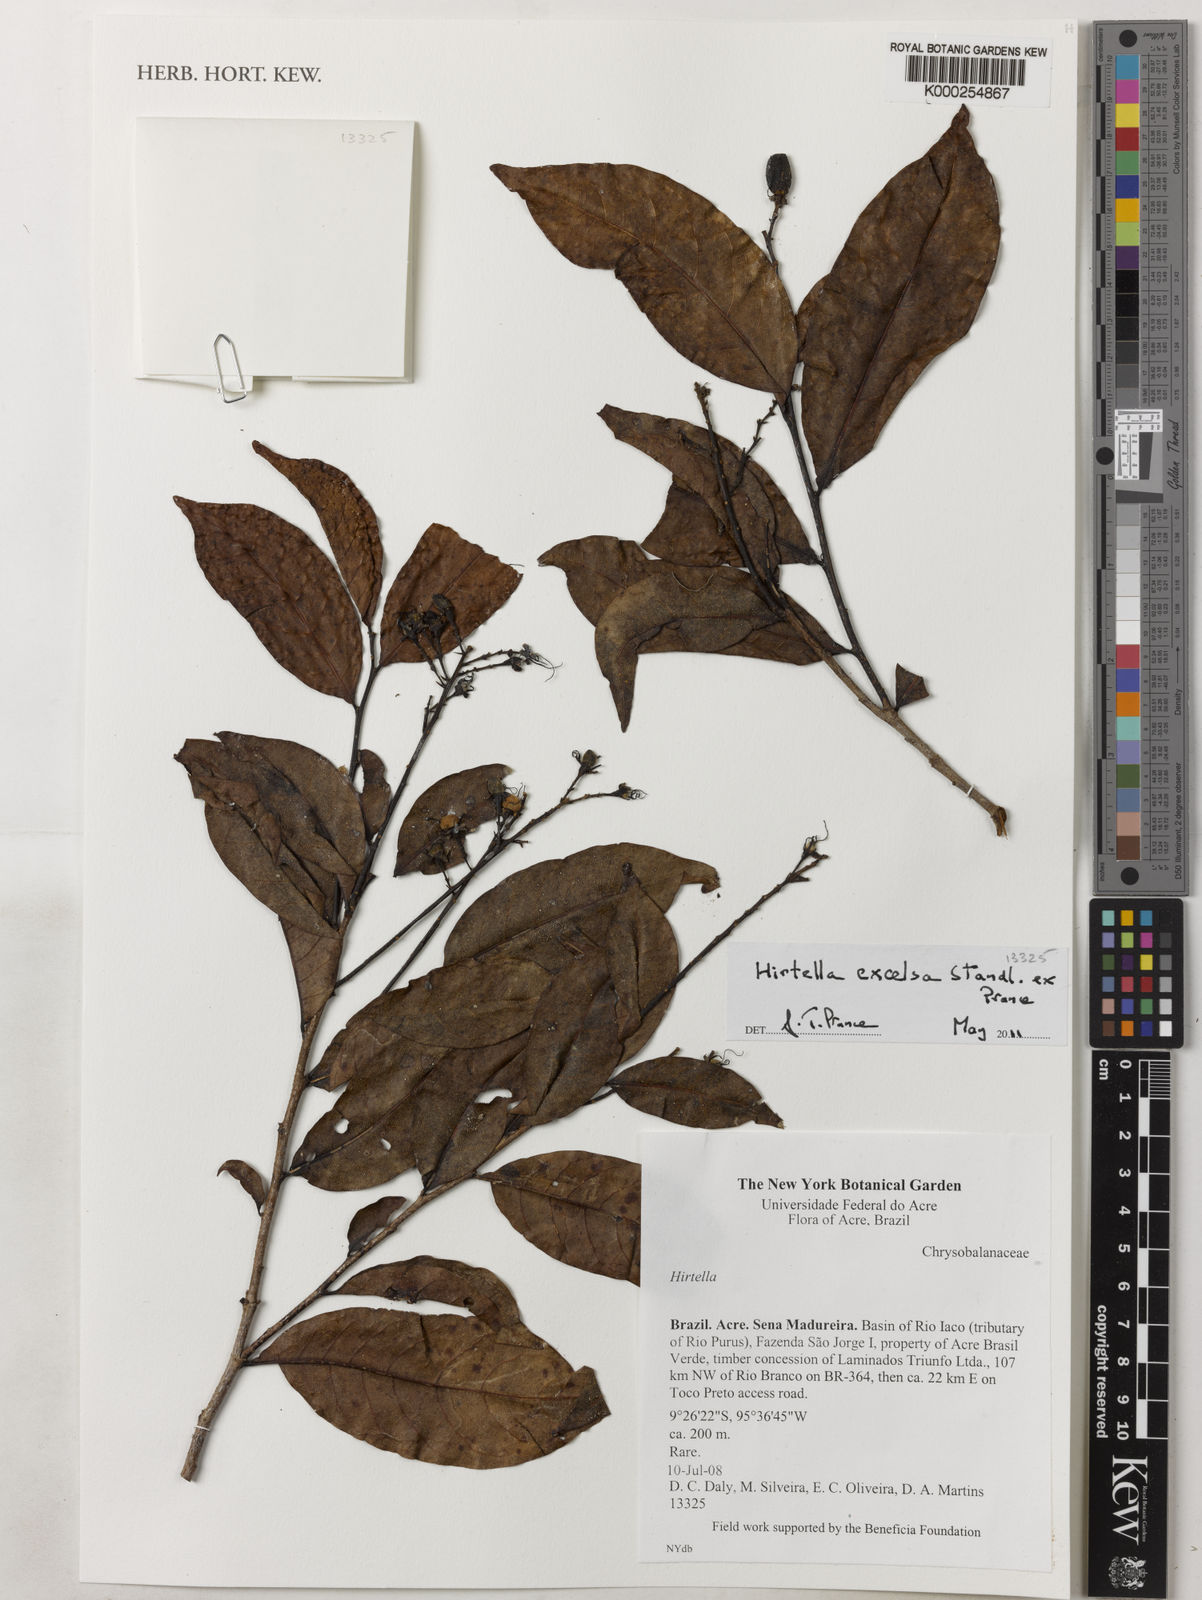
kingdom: Plantae
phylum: Tracheophyta
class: Magnoliopsida
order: Malpighiales
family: Chrysobalanaceae
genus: Hirtella
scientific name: Hirtella excelsa
